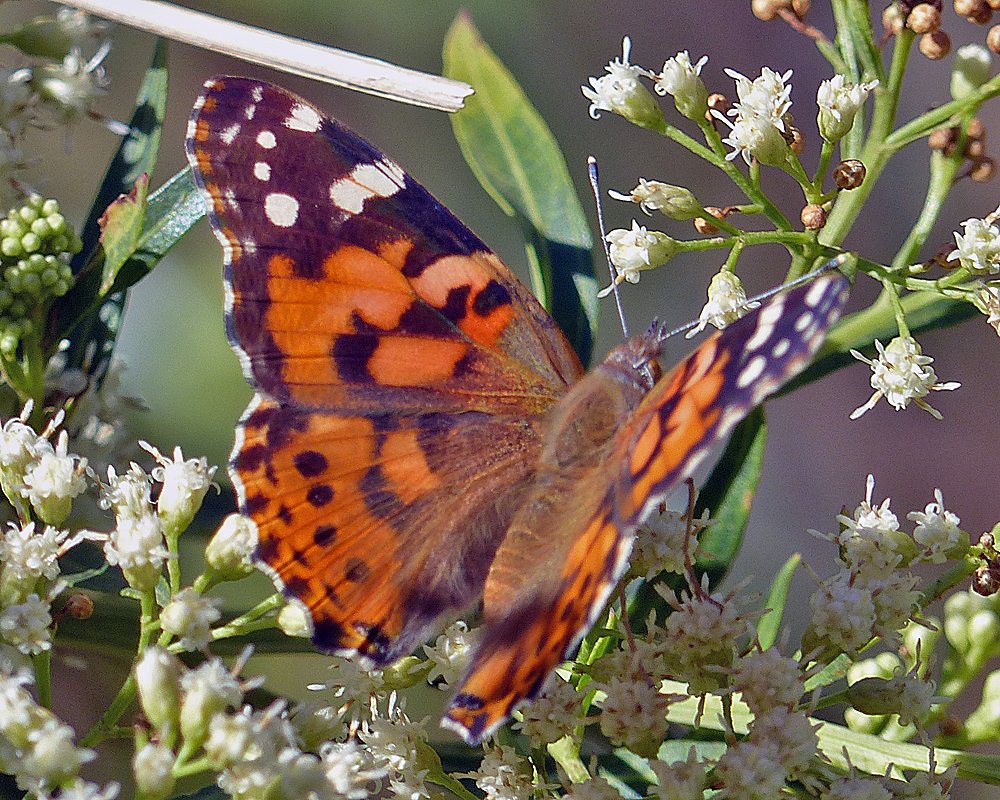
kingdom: Animalia
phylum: Arthropoda
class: Insecta
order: Lepidoptera
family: Nymphalidae
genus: Vanessa
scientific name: Vanessa cardui
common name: Painted Lady
